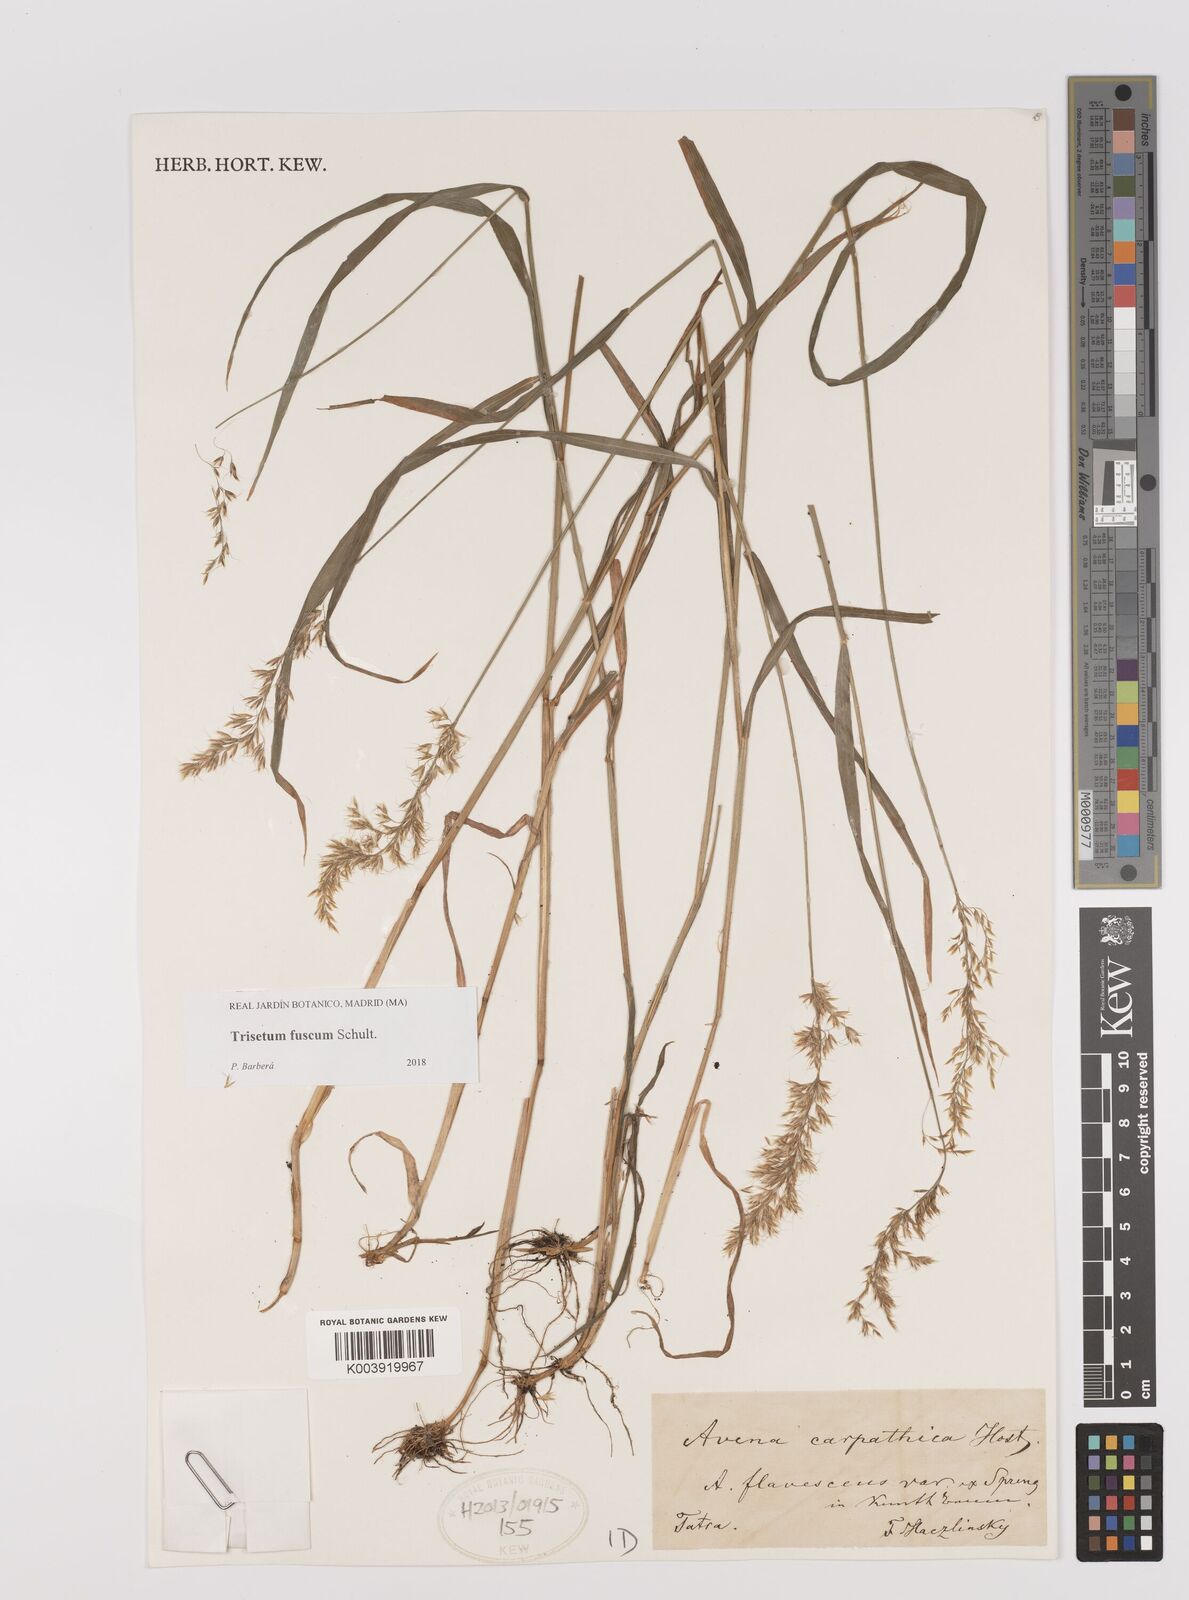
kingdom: Plantae
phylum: Tracheophyta
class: Liliopsida
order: Poales
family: Poaceae
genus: Trisetum
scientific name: Trisetum fuscum
